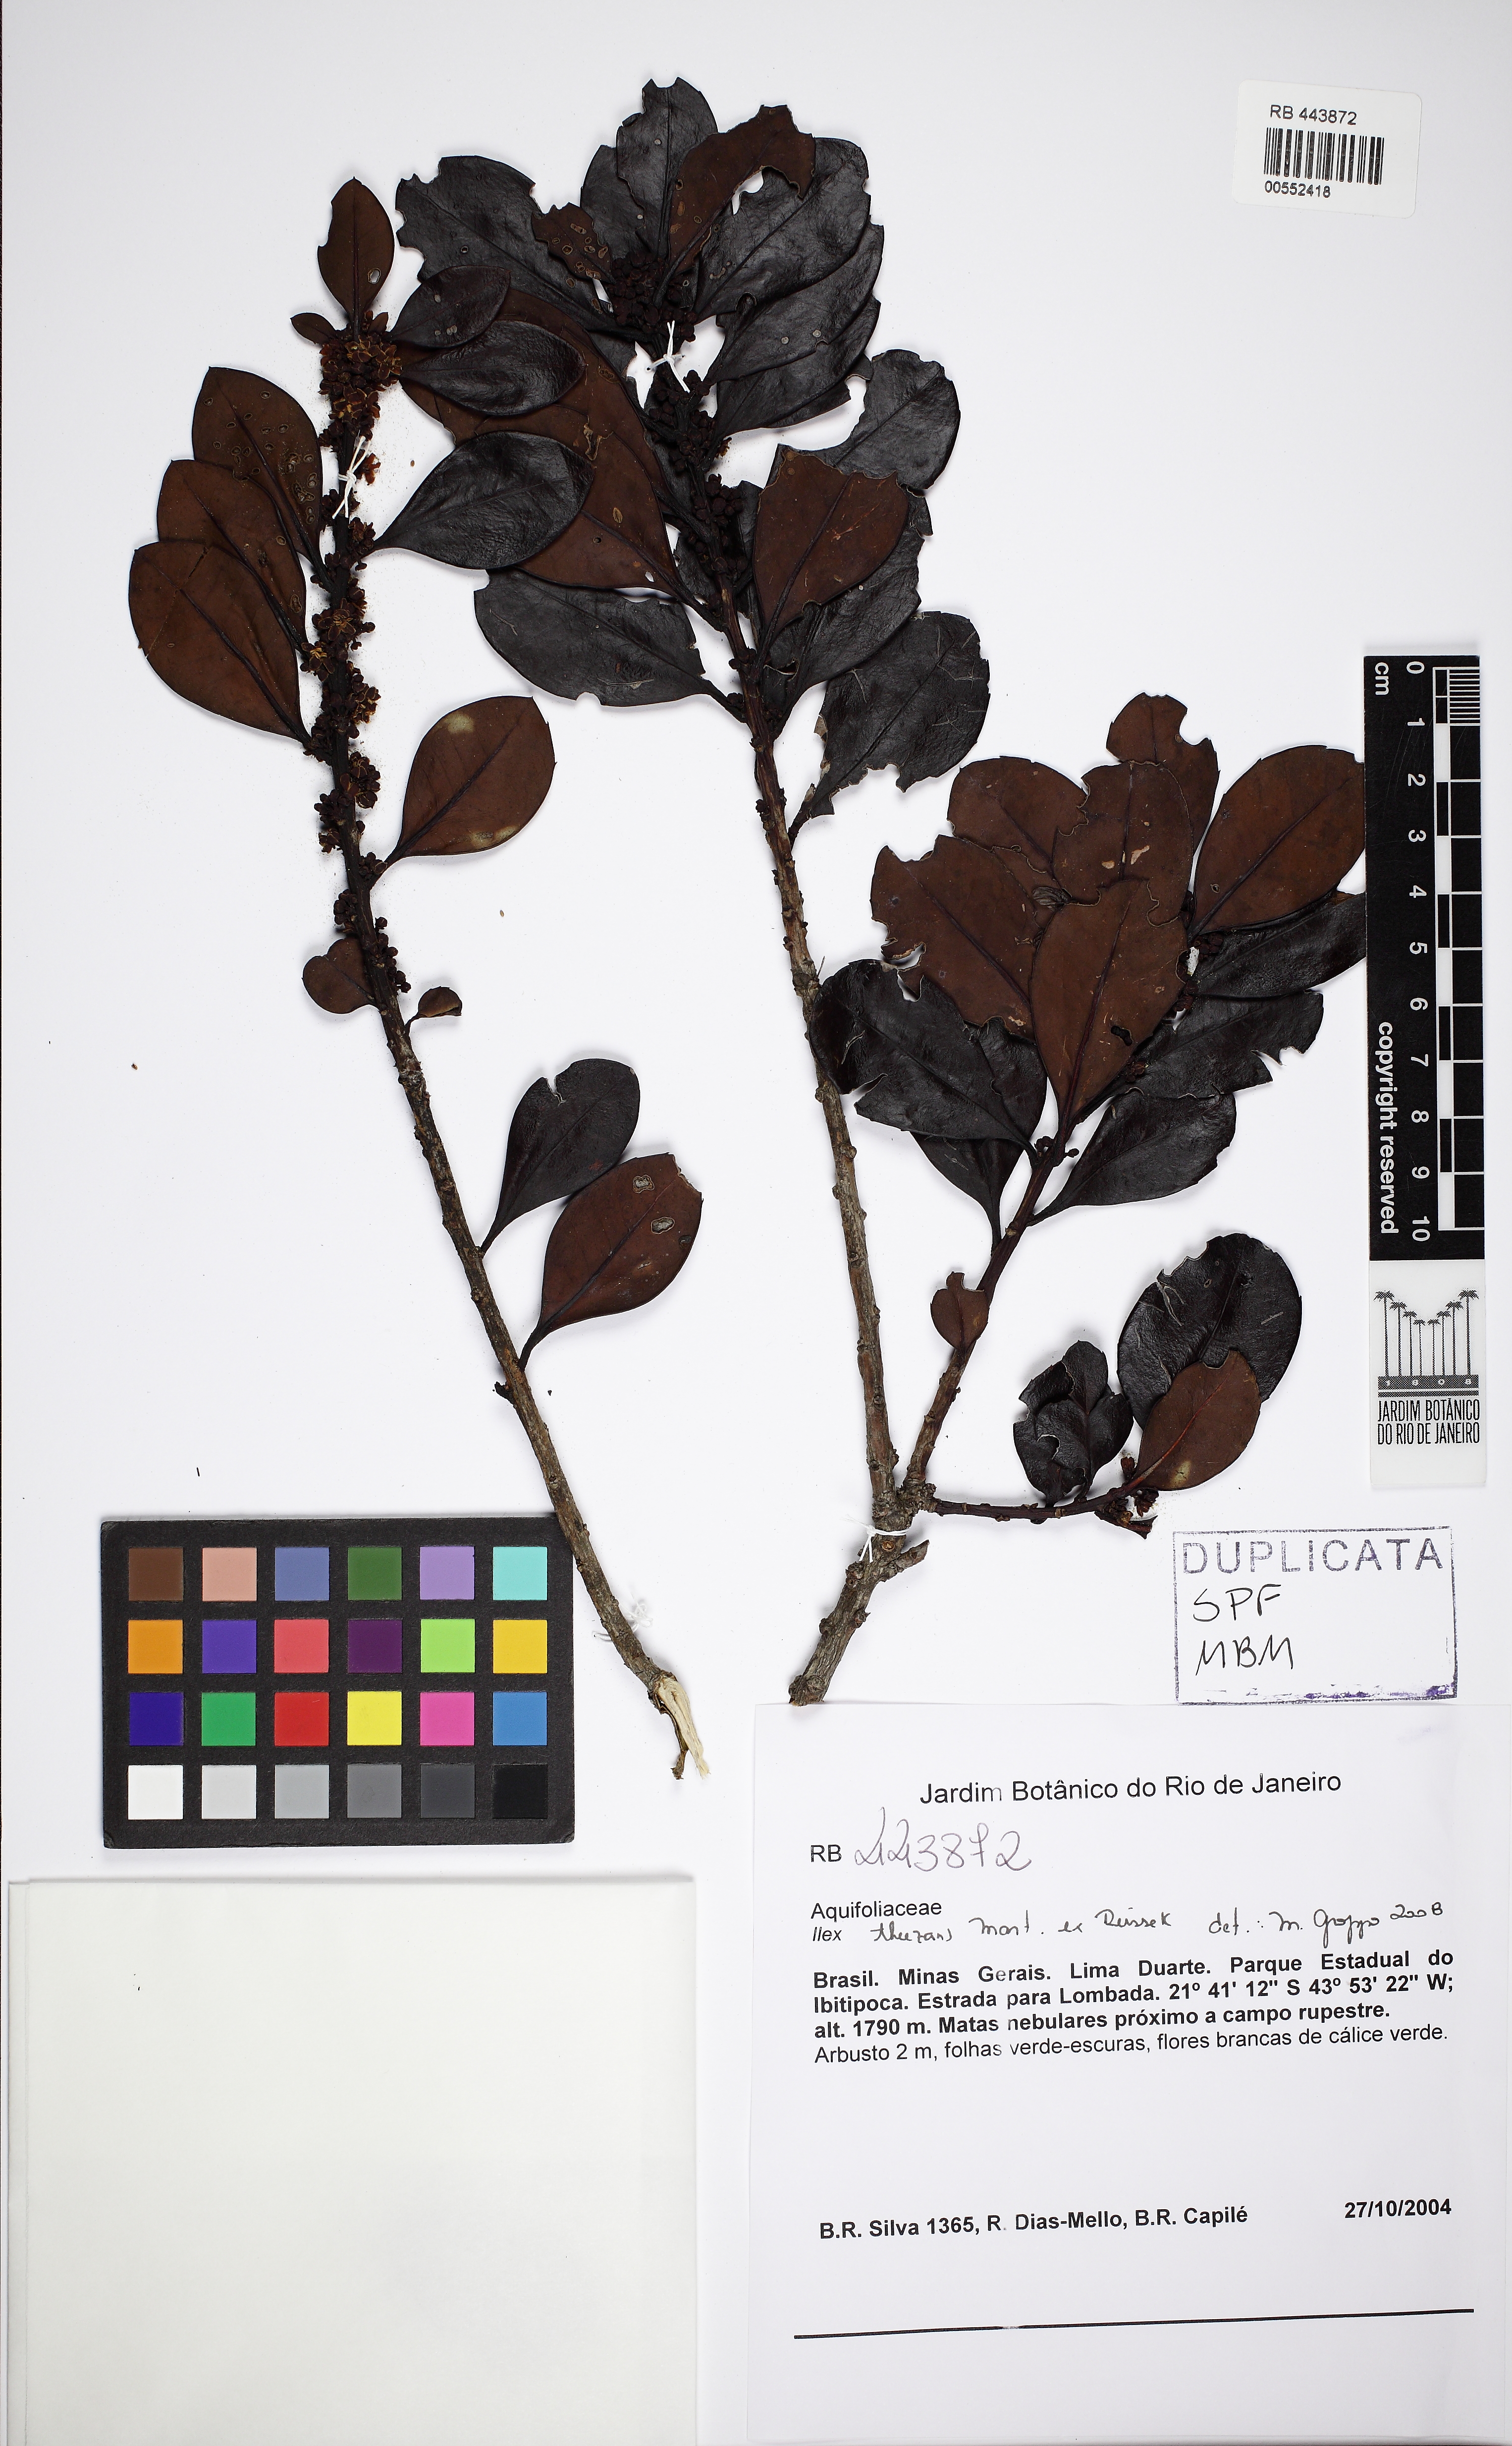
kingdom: Plantae
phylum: Tracheophyta
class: Magnoliopsida
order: Aquifoliales
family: Aquifoliaceae
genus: Ilex
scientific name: Ilex theezans
